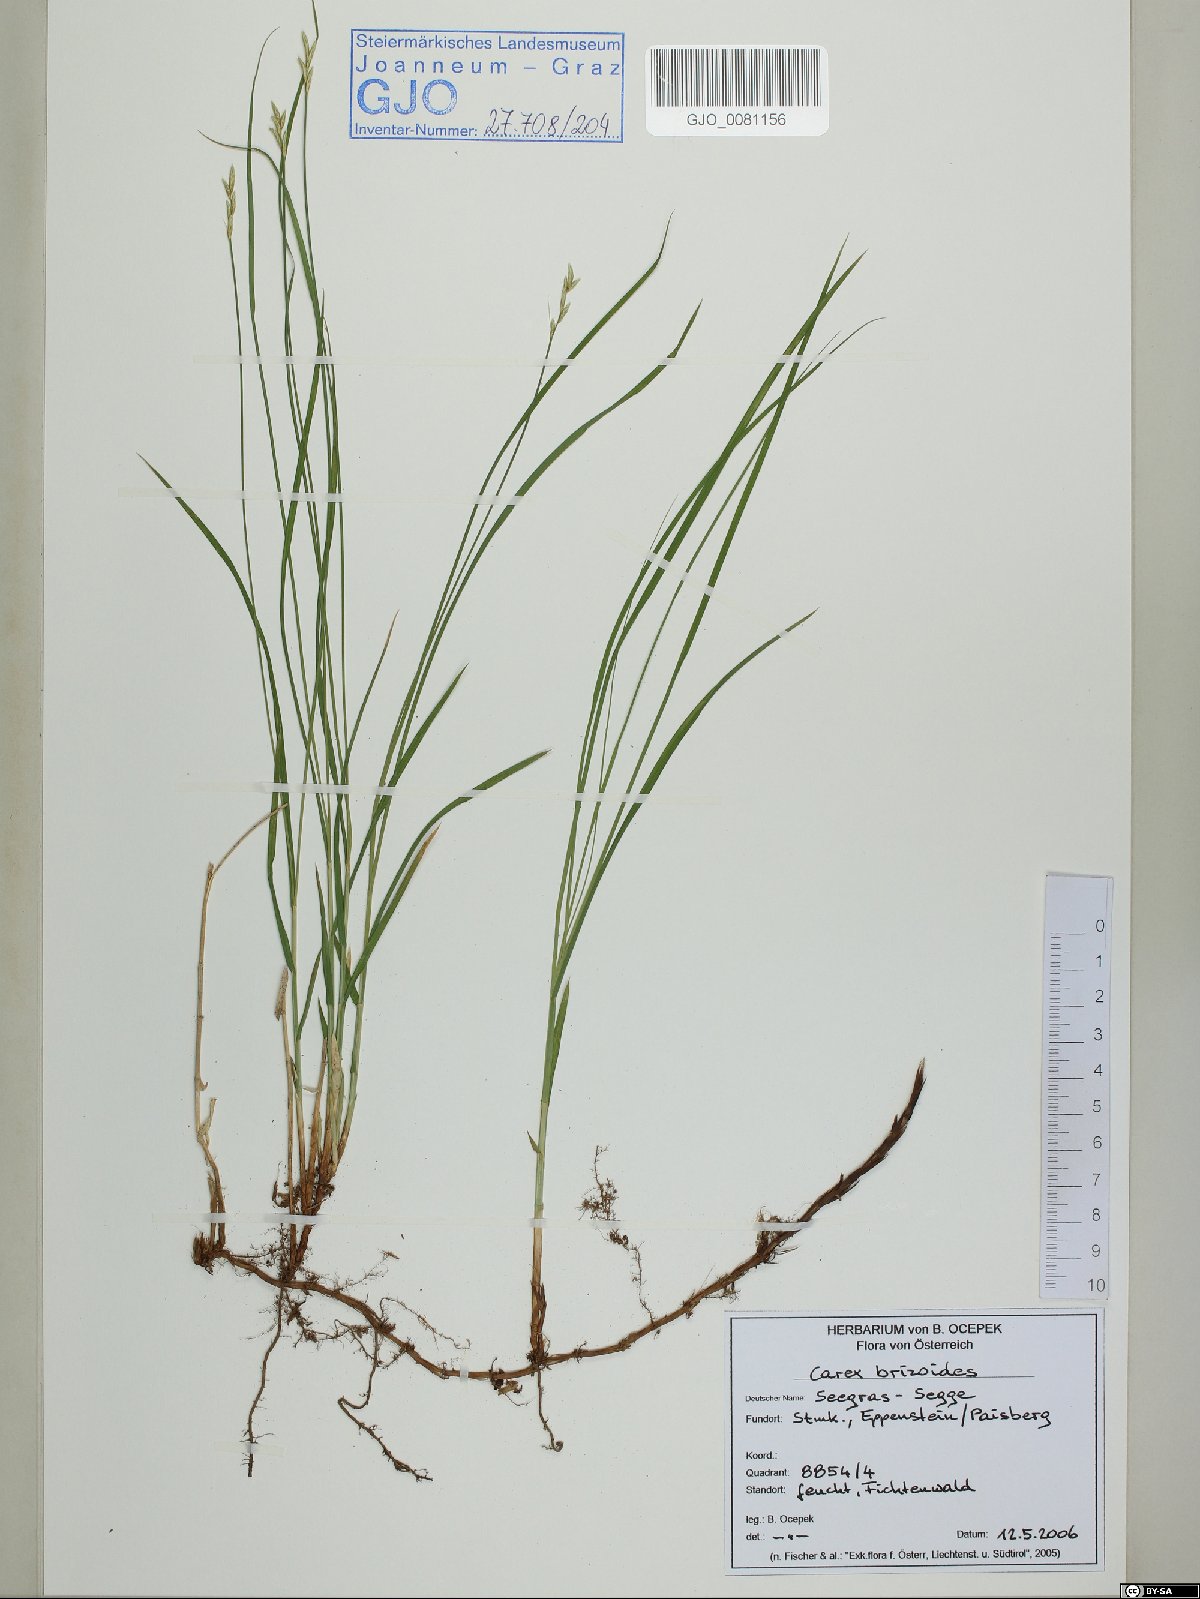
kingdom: Plantae
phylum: Tracheophyta
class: Liliopsida
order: Poales
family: Cyperaceae
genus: Carex
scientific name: Carex brizoides
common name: Quaking-grass sedge
